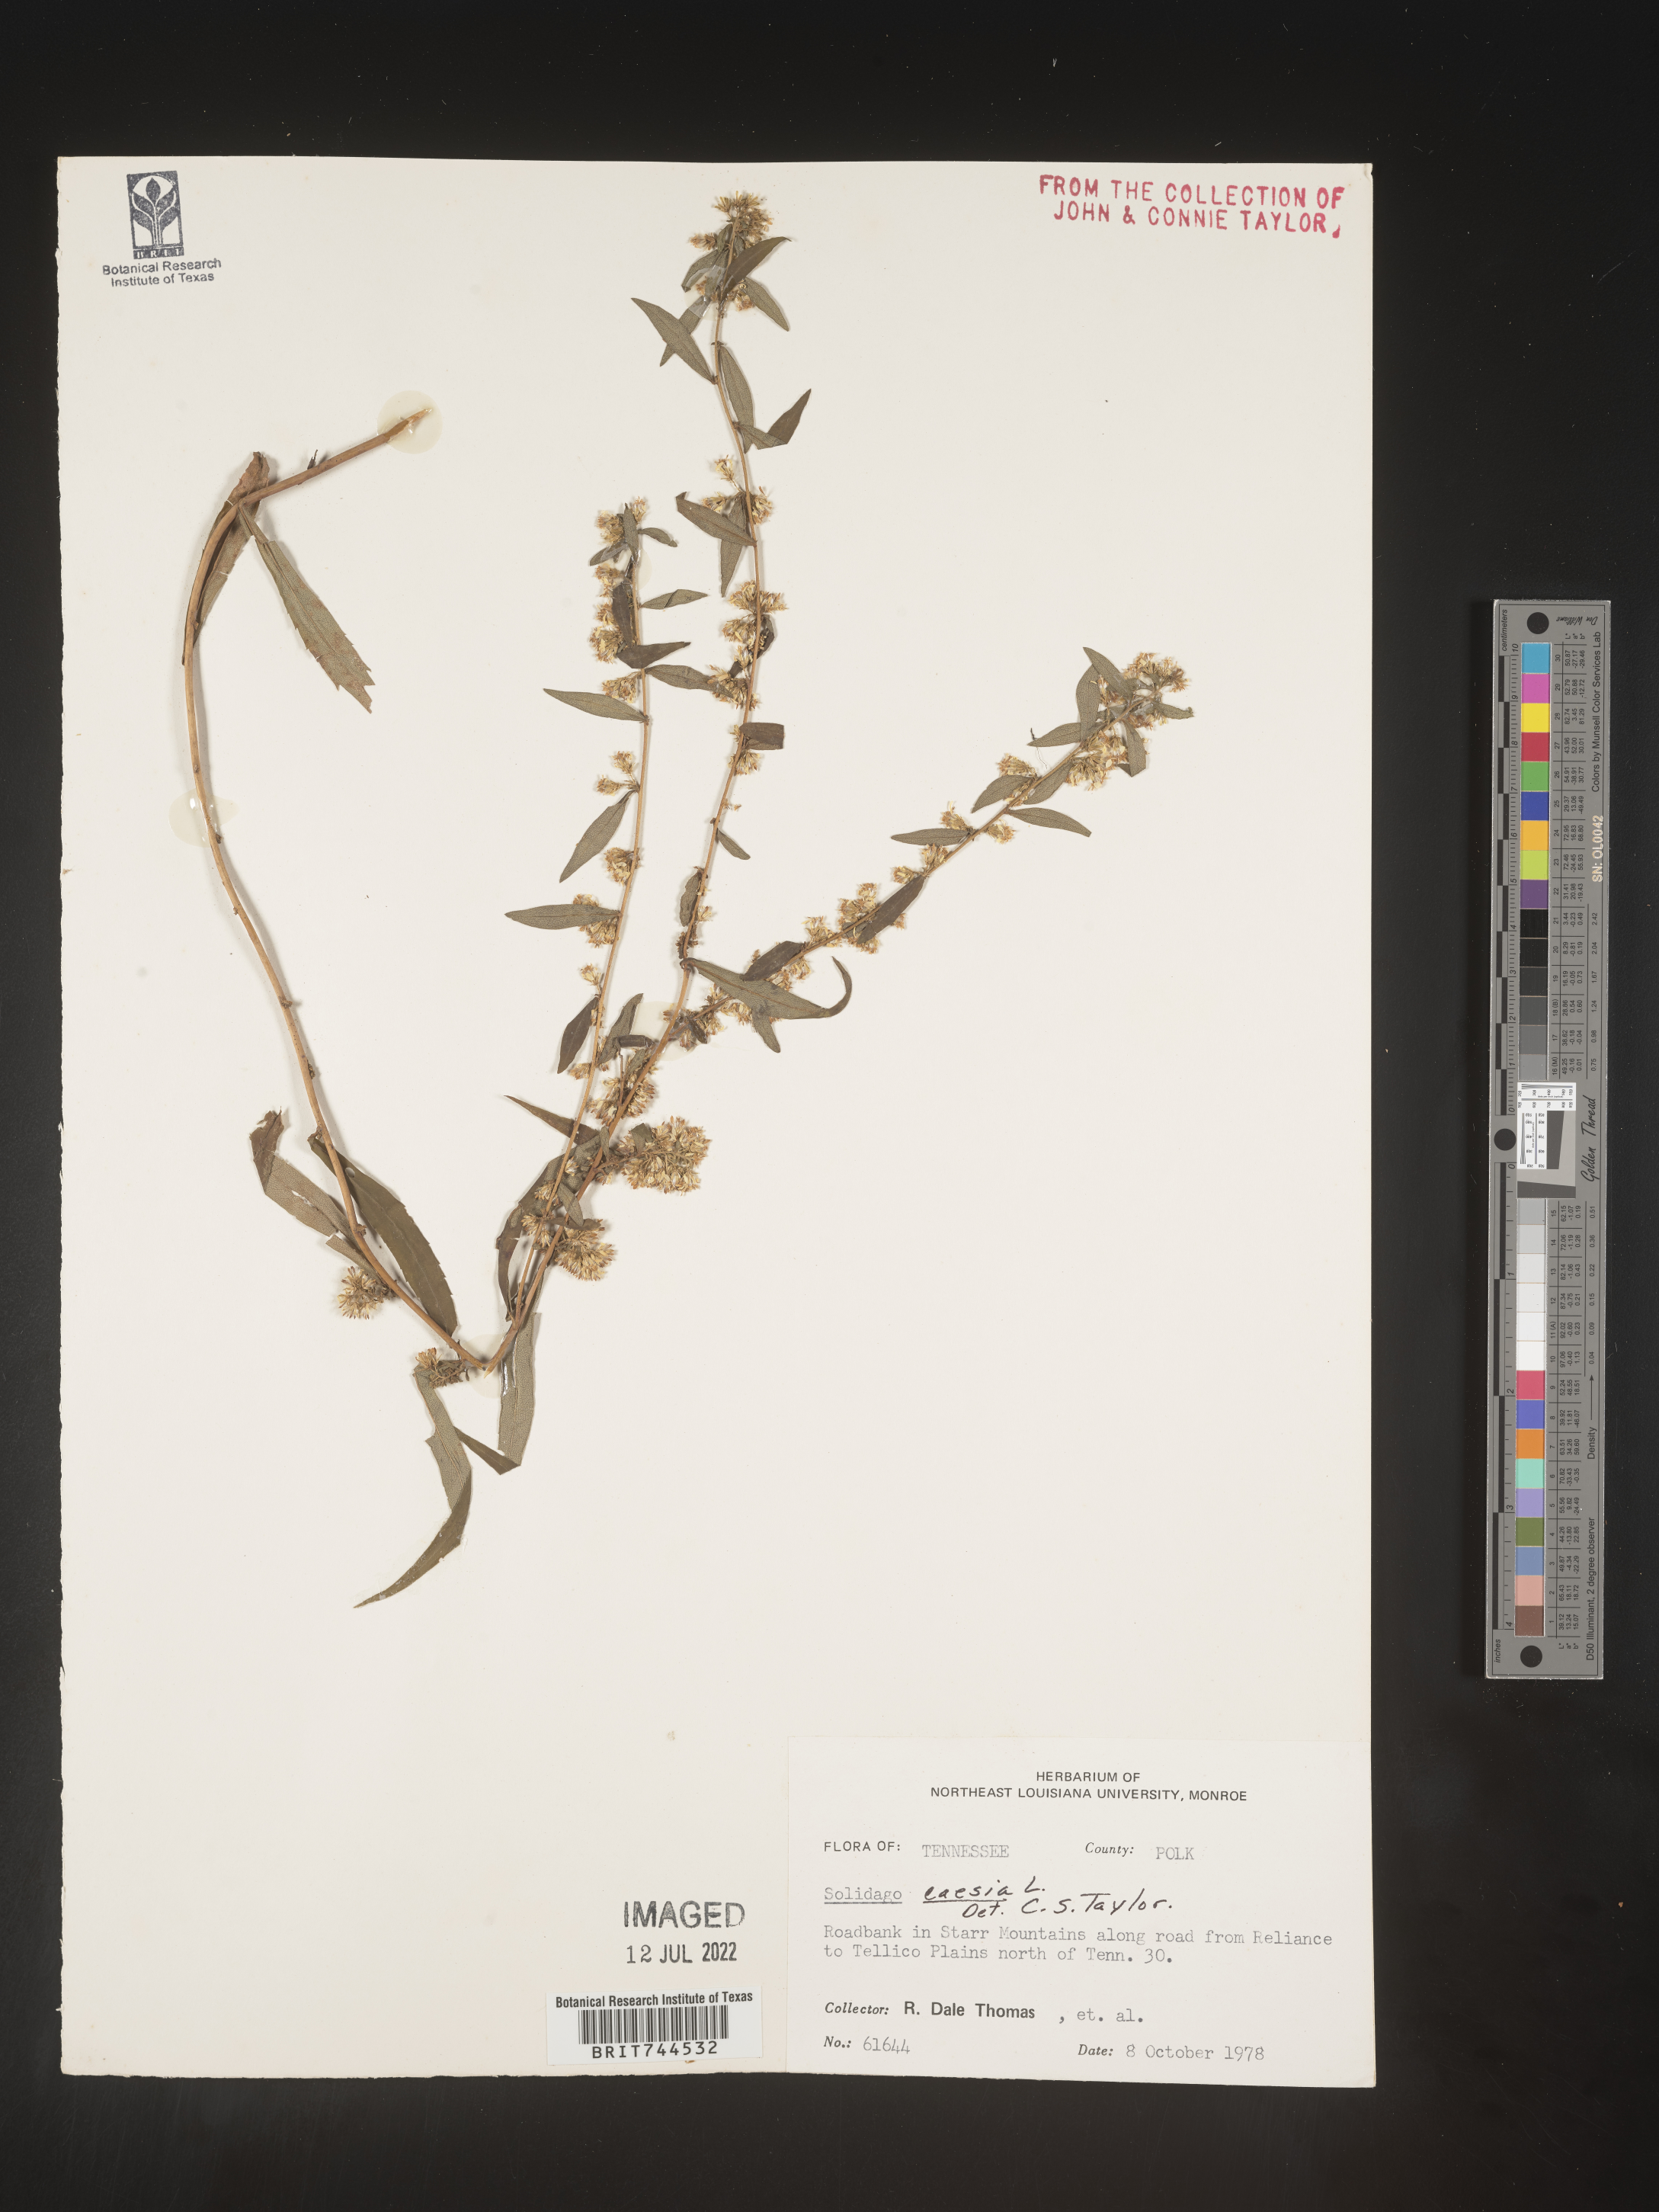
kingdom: Plantae
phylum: Tracheophyta
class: Magnoliopsida
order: Asterales
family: Asteraceae
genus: Solidago
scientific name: Solidago caesia
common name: Woodland goldenrod
